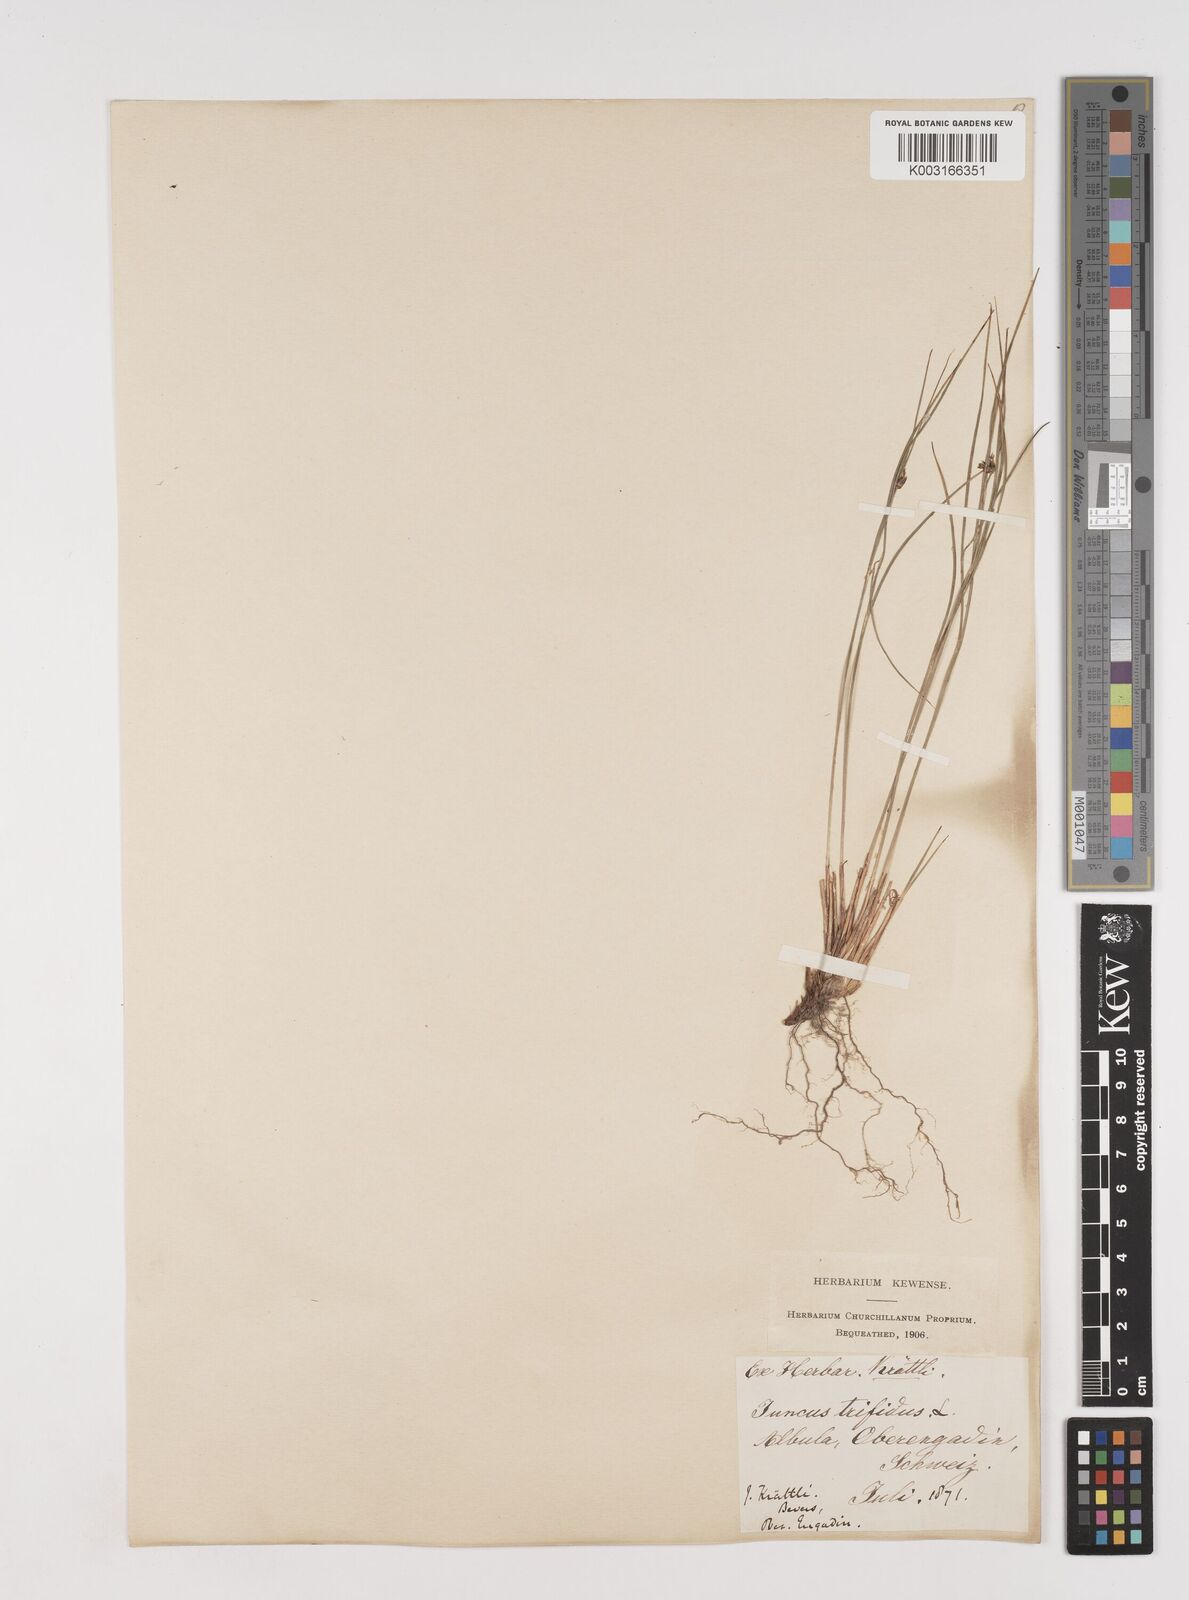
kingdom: Plantae
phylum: Tracheophyta
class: Liliopsida
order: Poales
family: Juncaceae
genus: Oreojuncus
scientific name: Oreojuncus trifidus
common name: Highland rush
